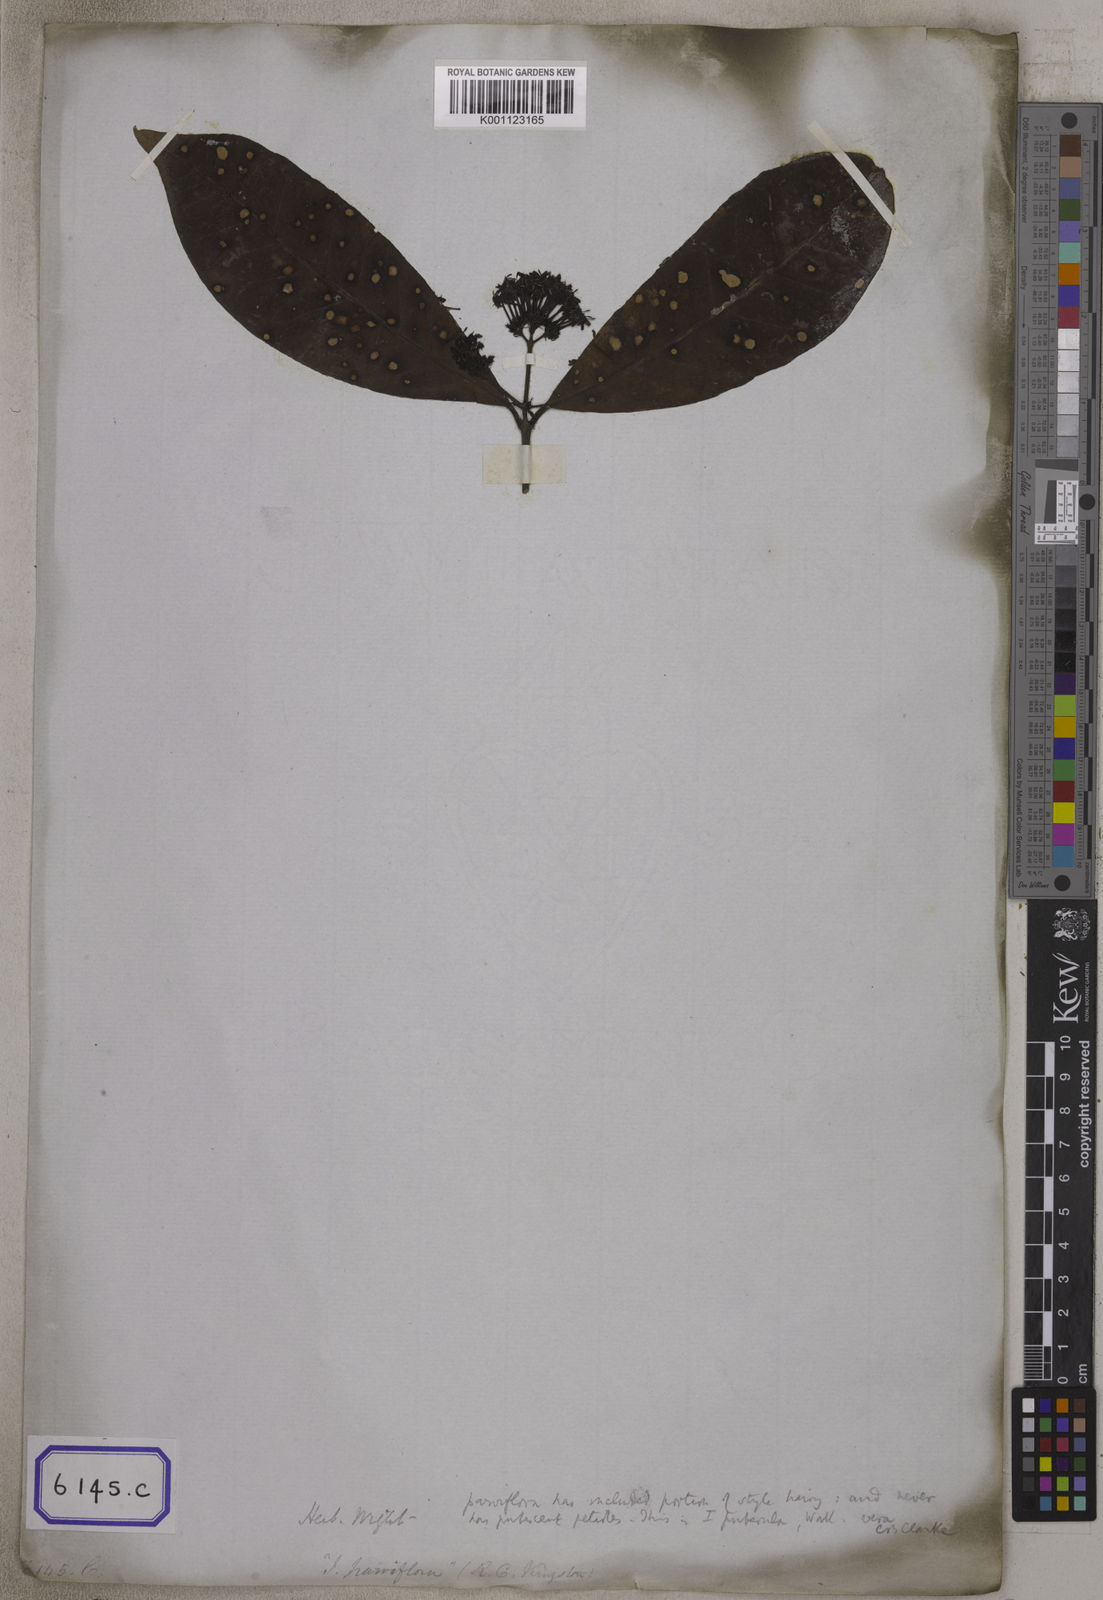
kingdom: Plantae
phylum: Tracheophyta
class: Magnoliopsida
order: Gentianales
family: Rubiaceae
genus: Ixora
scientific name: Ixora
